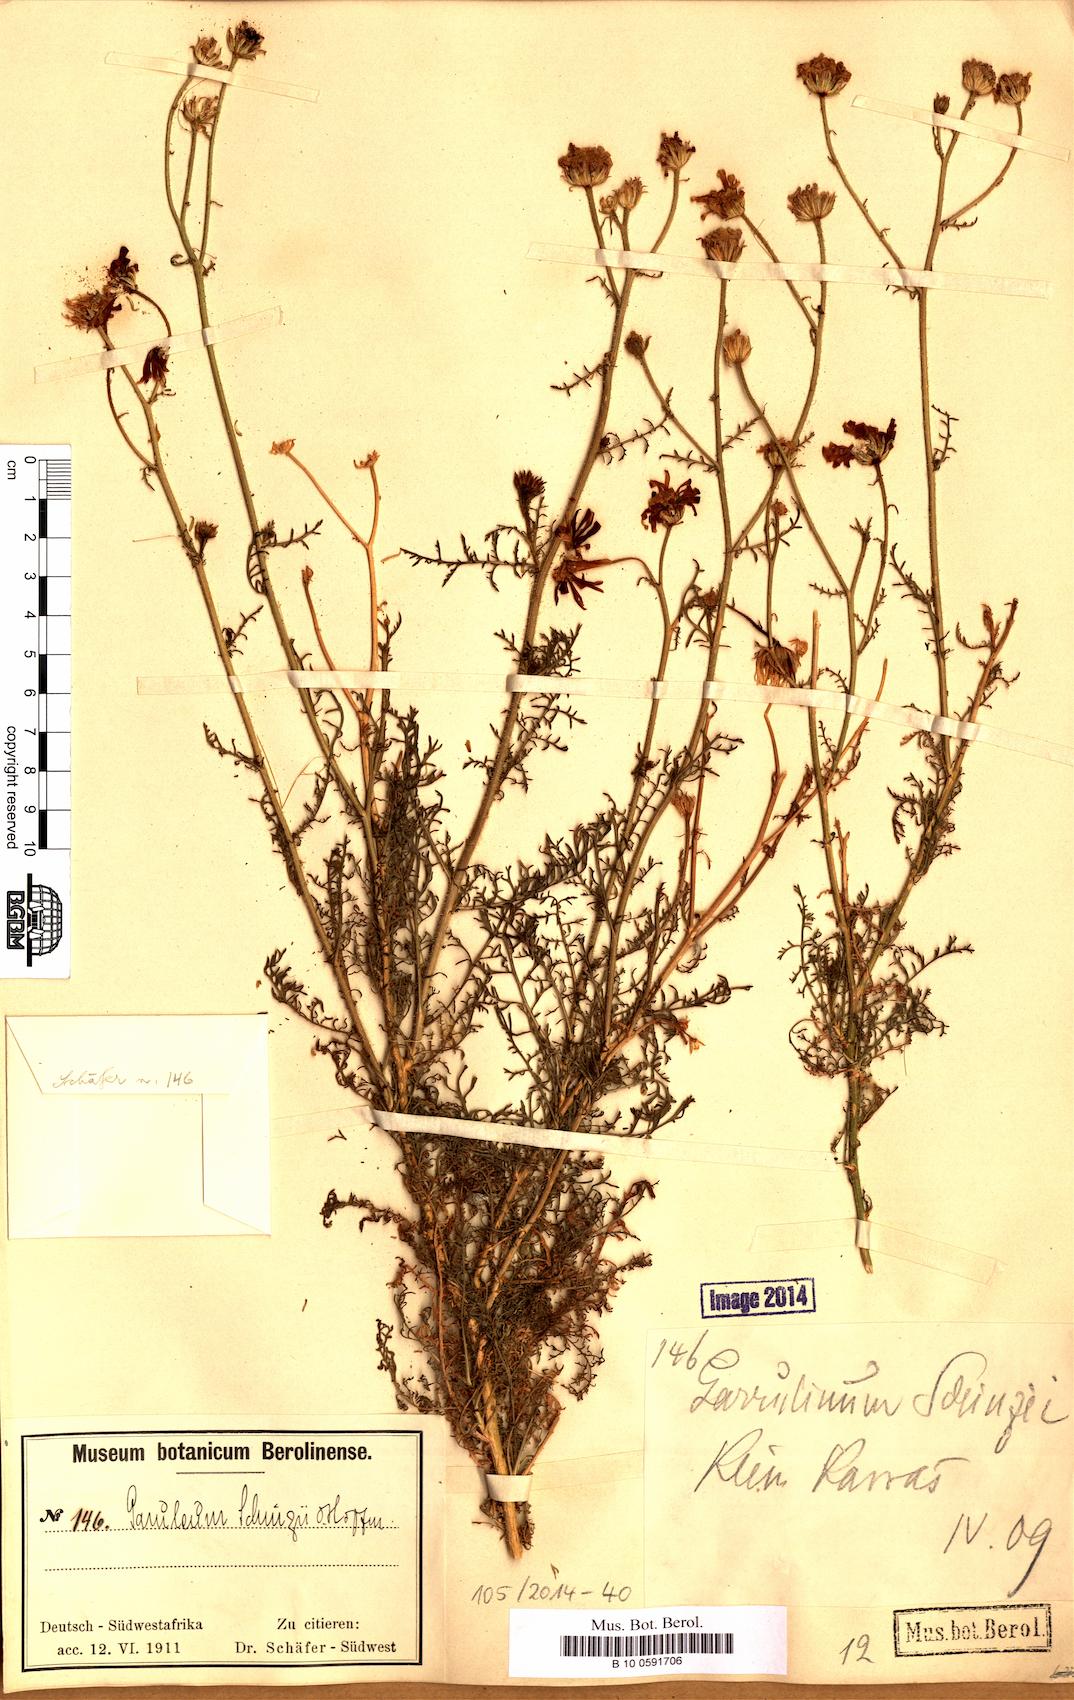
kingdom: Plantae
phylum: Tracheophyta
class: Magnoliopsida
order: Asterales
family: Asteraceae
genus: Garuleum
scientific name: Garuleum schinzii
